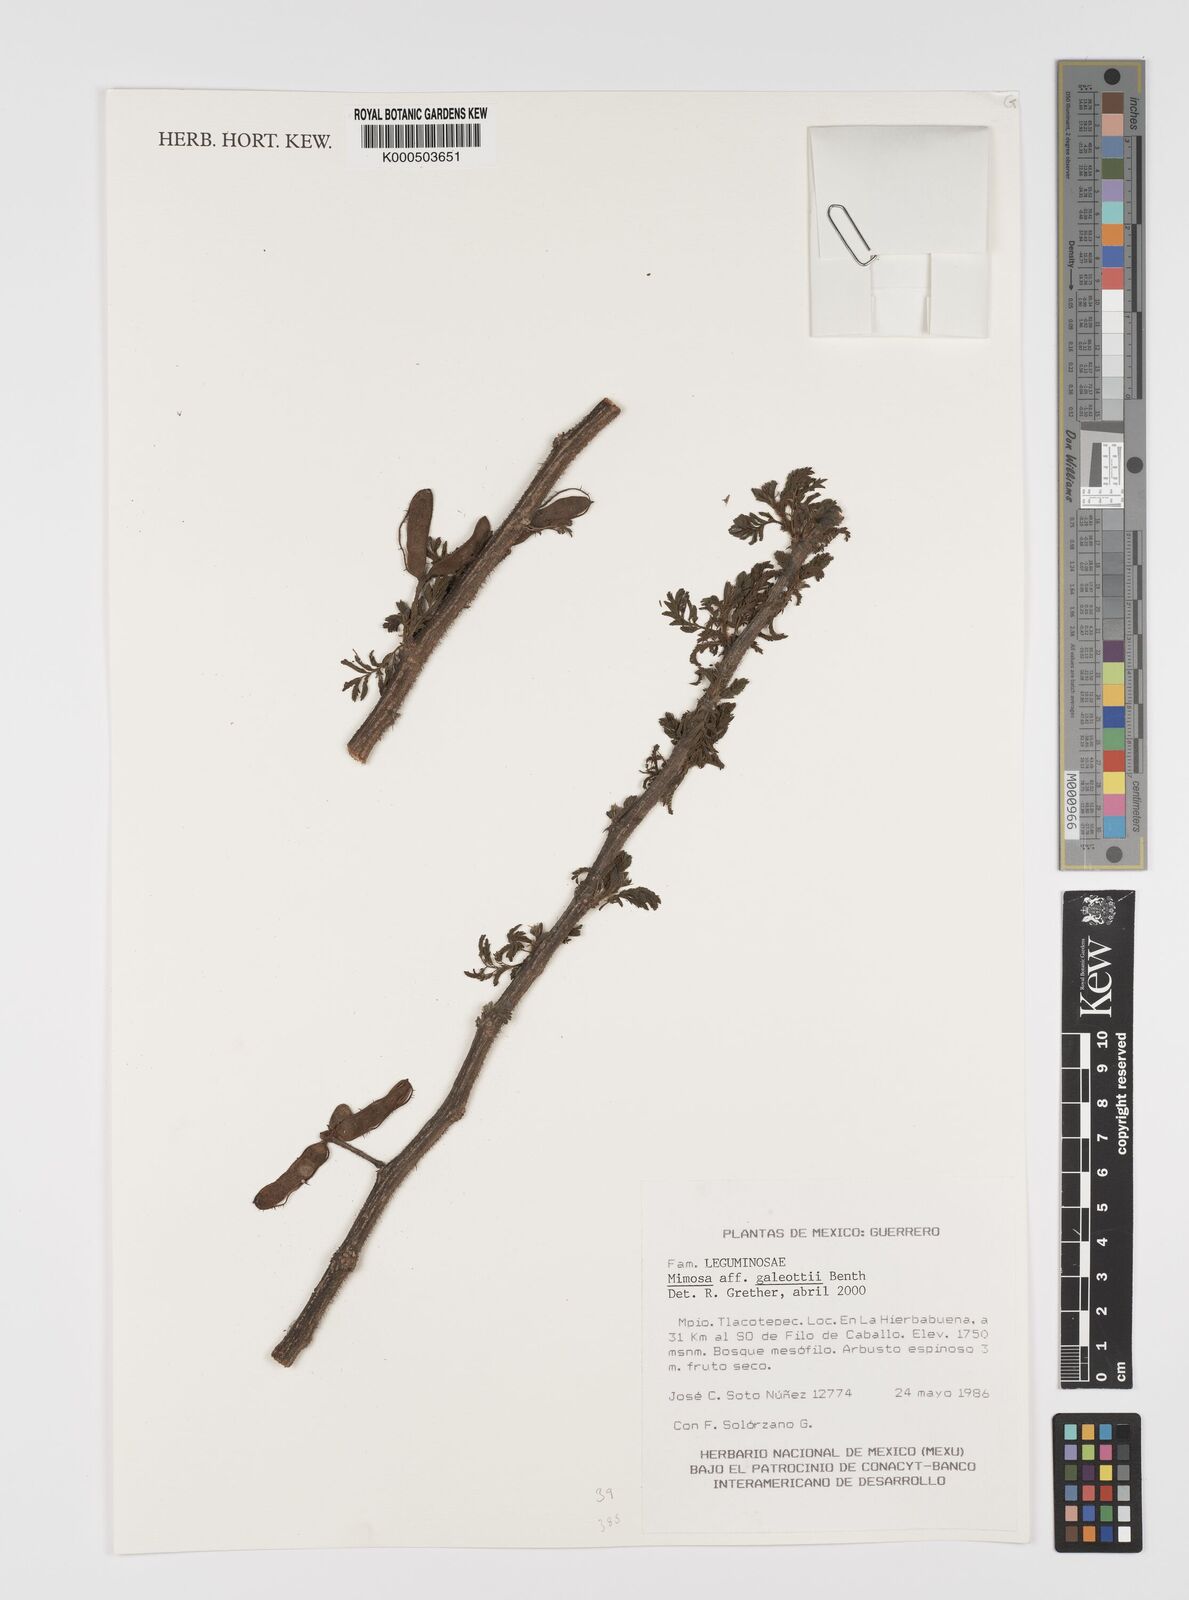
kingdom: Plantae
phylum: Tracheophyta
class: Magnoliopsida
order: Fabales
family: Fabaceae
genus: Mimosa
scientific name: Mimosa galeottii
